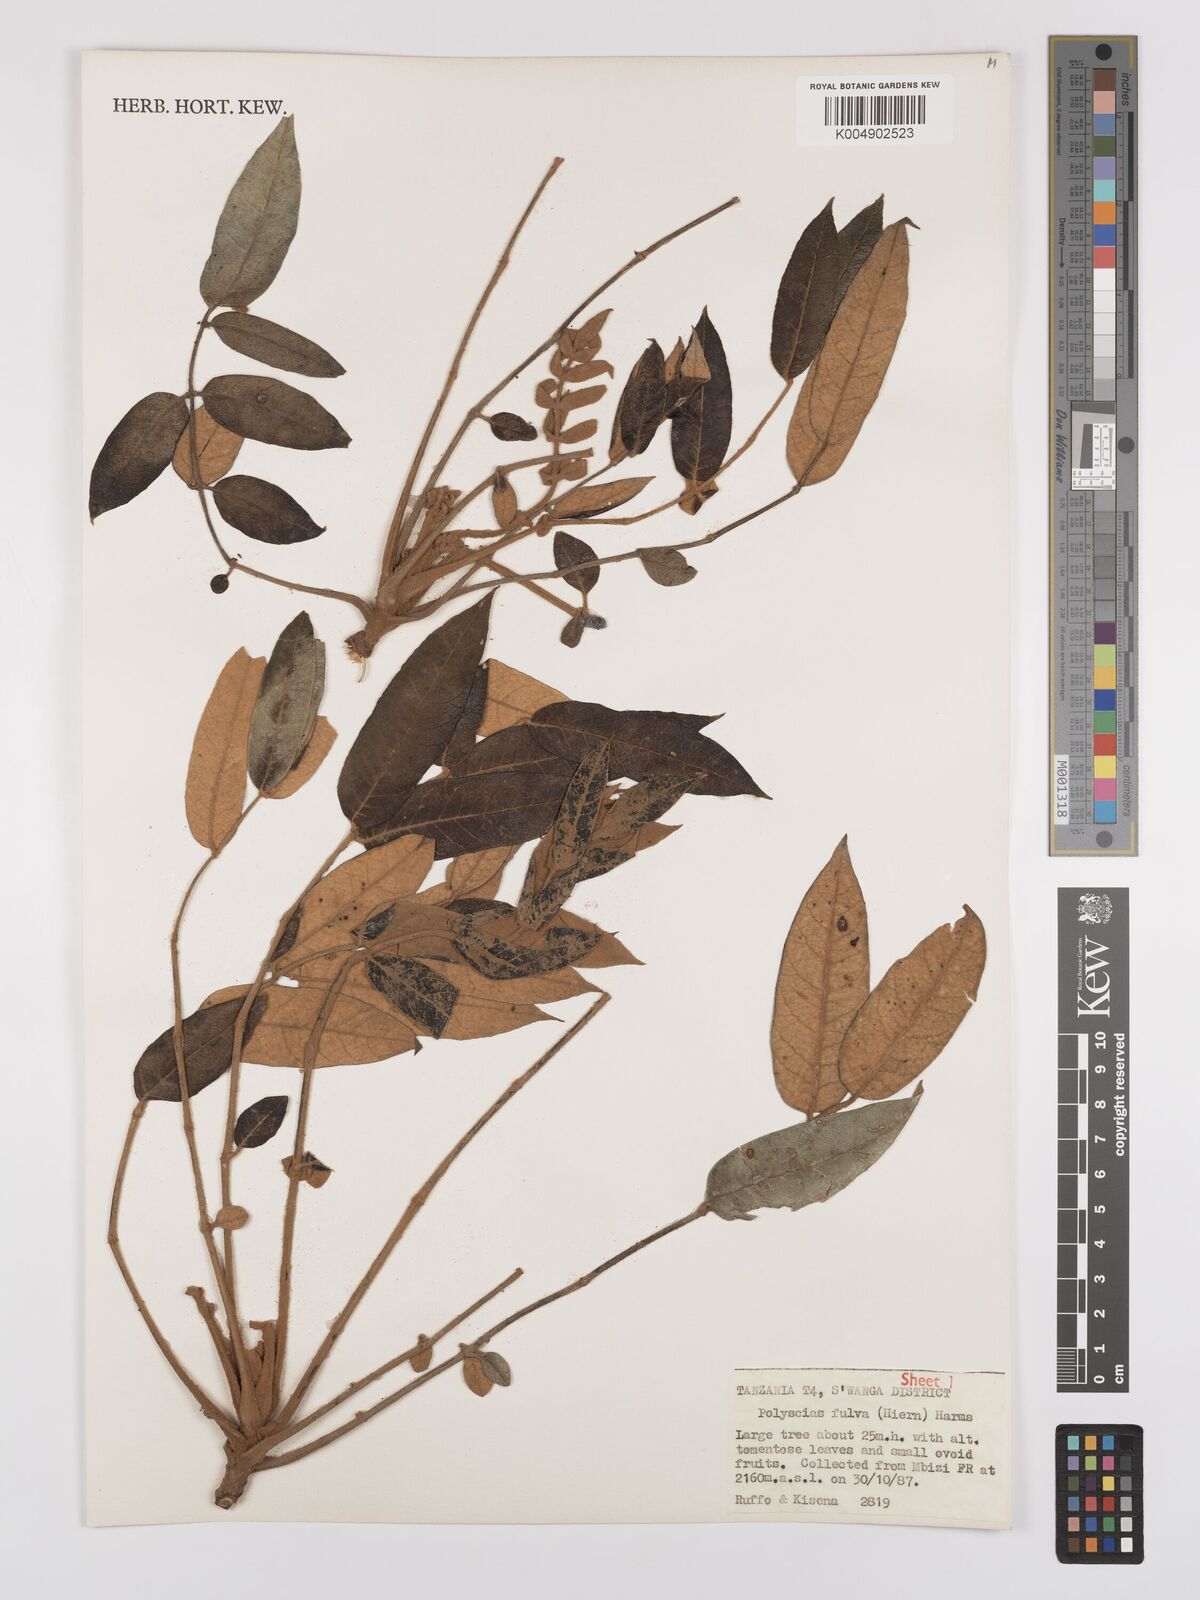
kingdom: Plantae
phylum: Tracheophyta
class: Magnoliopsida
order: Apiales
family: Araliaceae
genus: Polyscias
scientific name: Polyscias fulva
